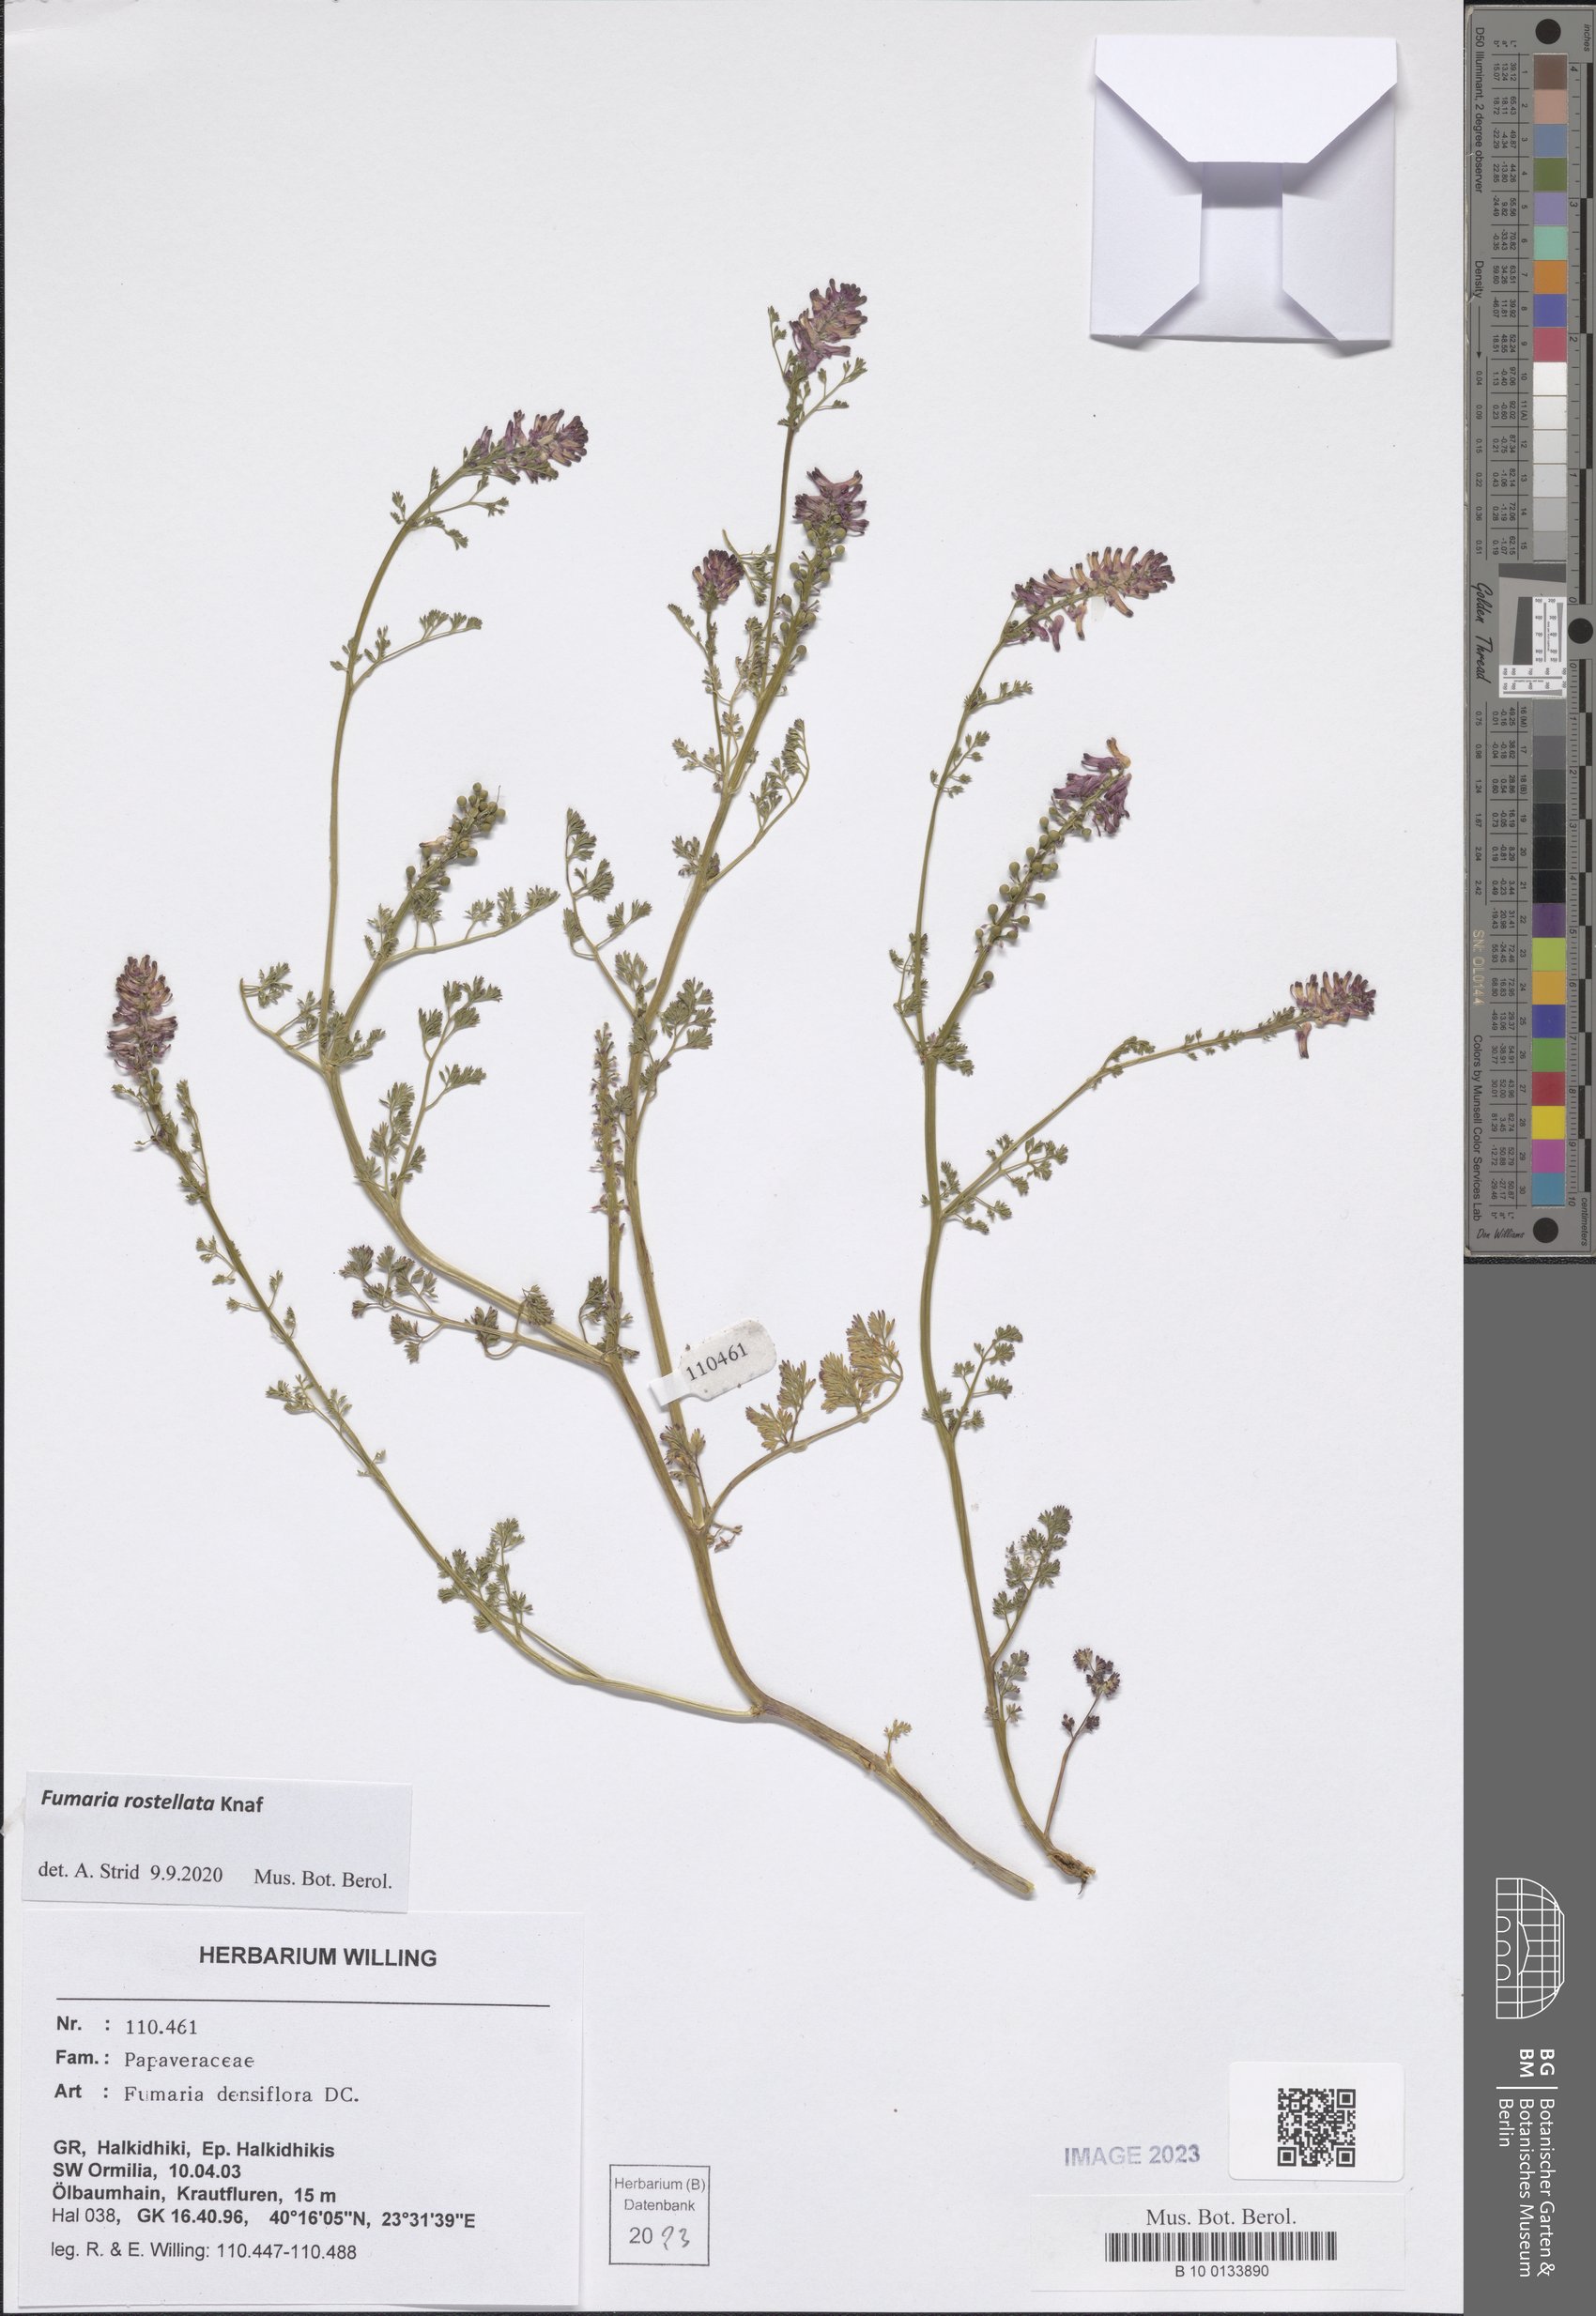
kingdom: Plantae
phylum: Tracheophyta
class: Magnoliopsida
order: Ranunculales
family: Papaveraceae
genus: Fumaria
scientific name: Fumaria rostellata
